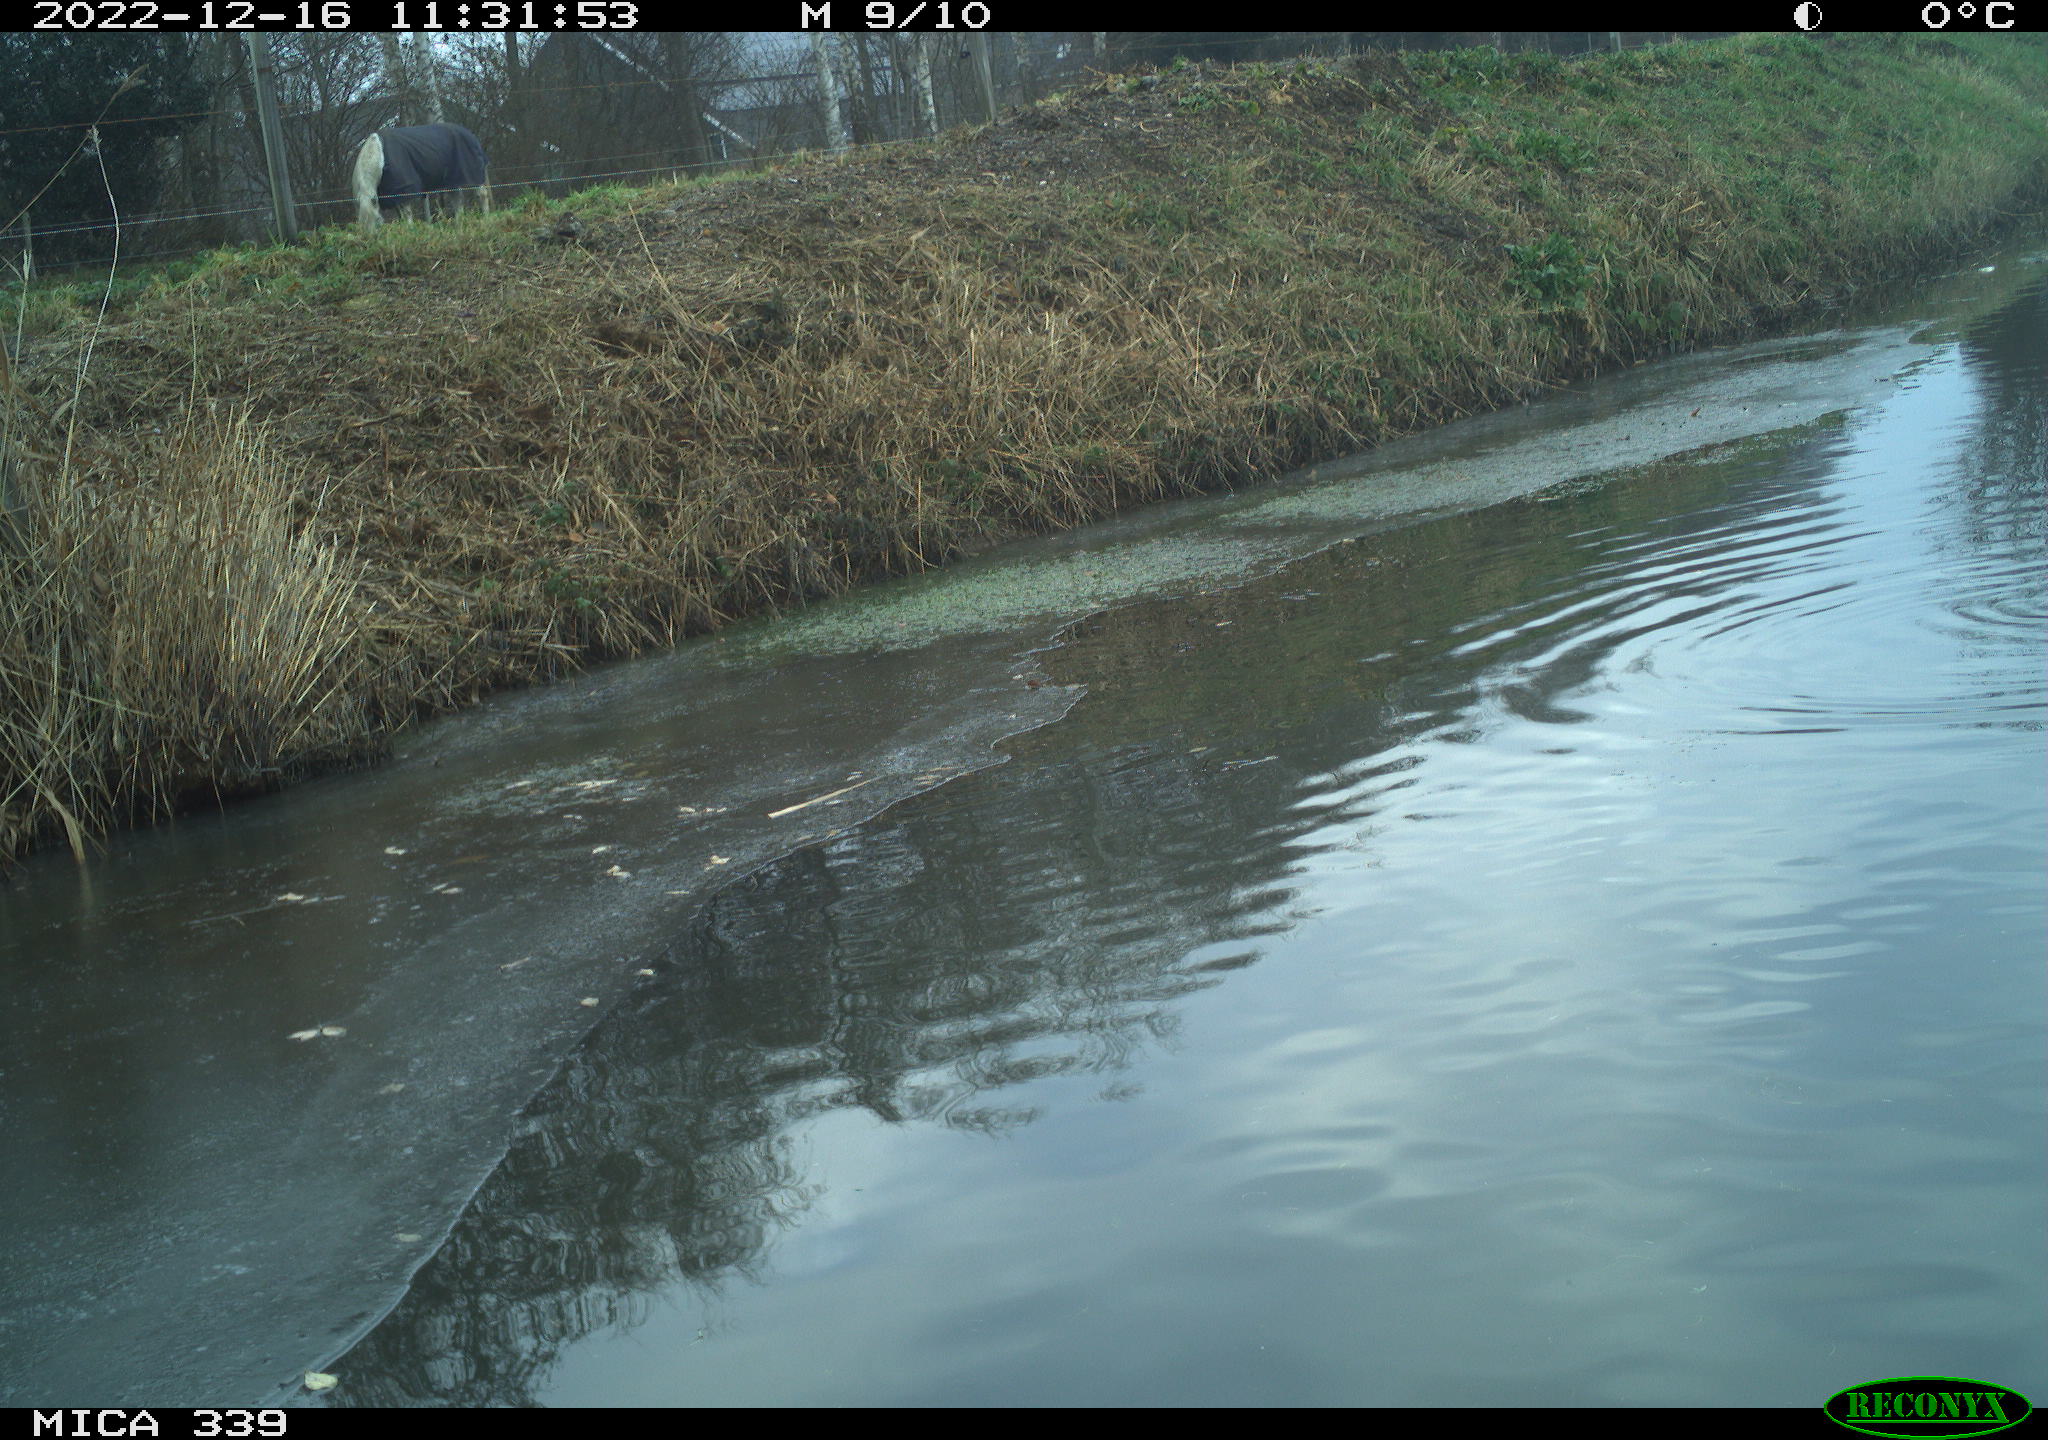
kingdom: Animalia
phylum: Chordata
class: Aves
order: Pelecaniformes
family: Ardeidae
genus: Ardea
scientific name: Ardea alba
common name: Great egret
